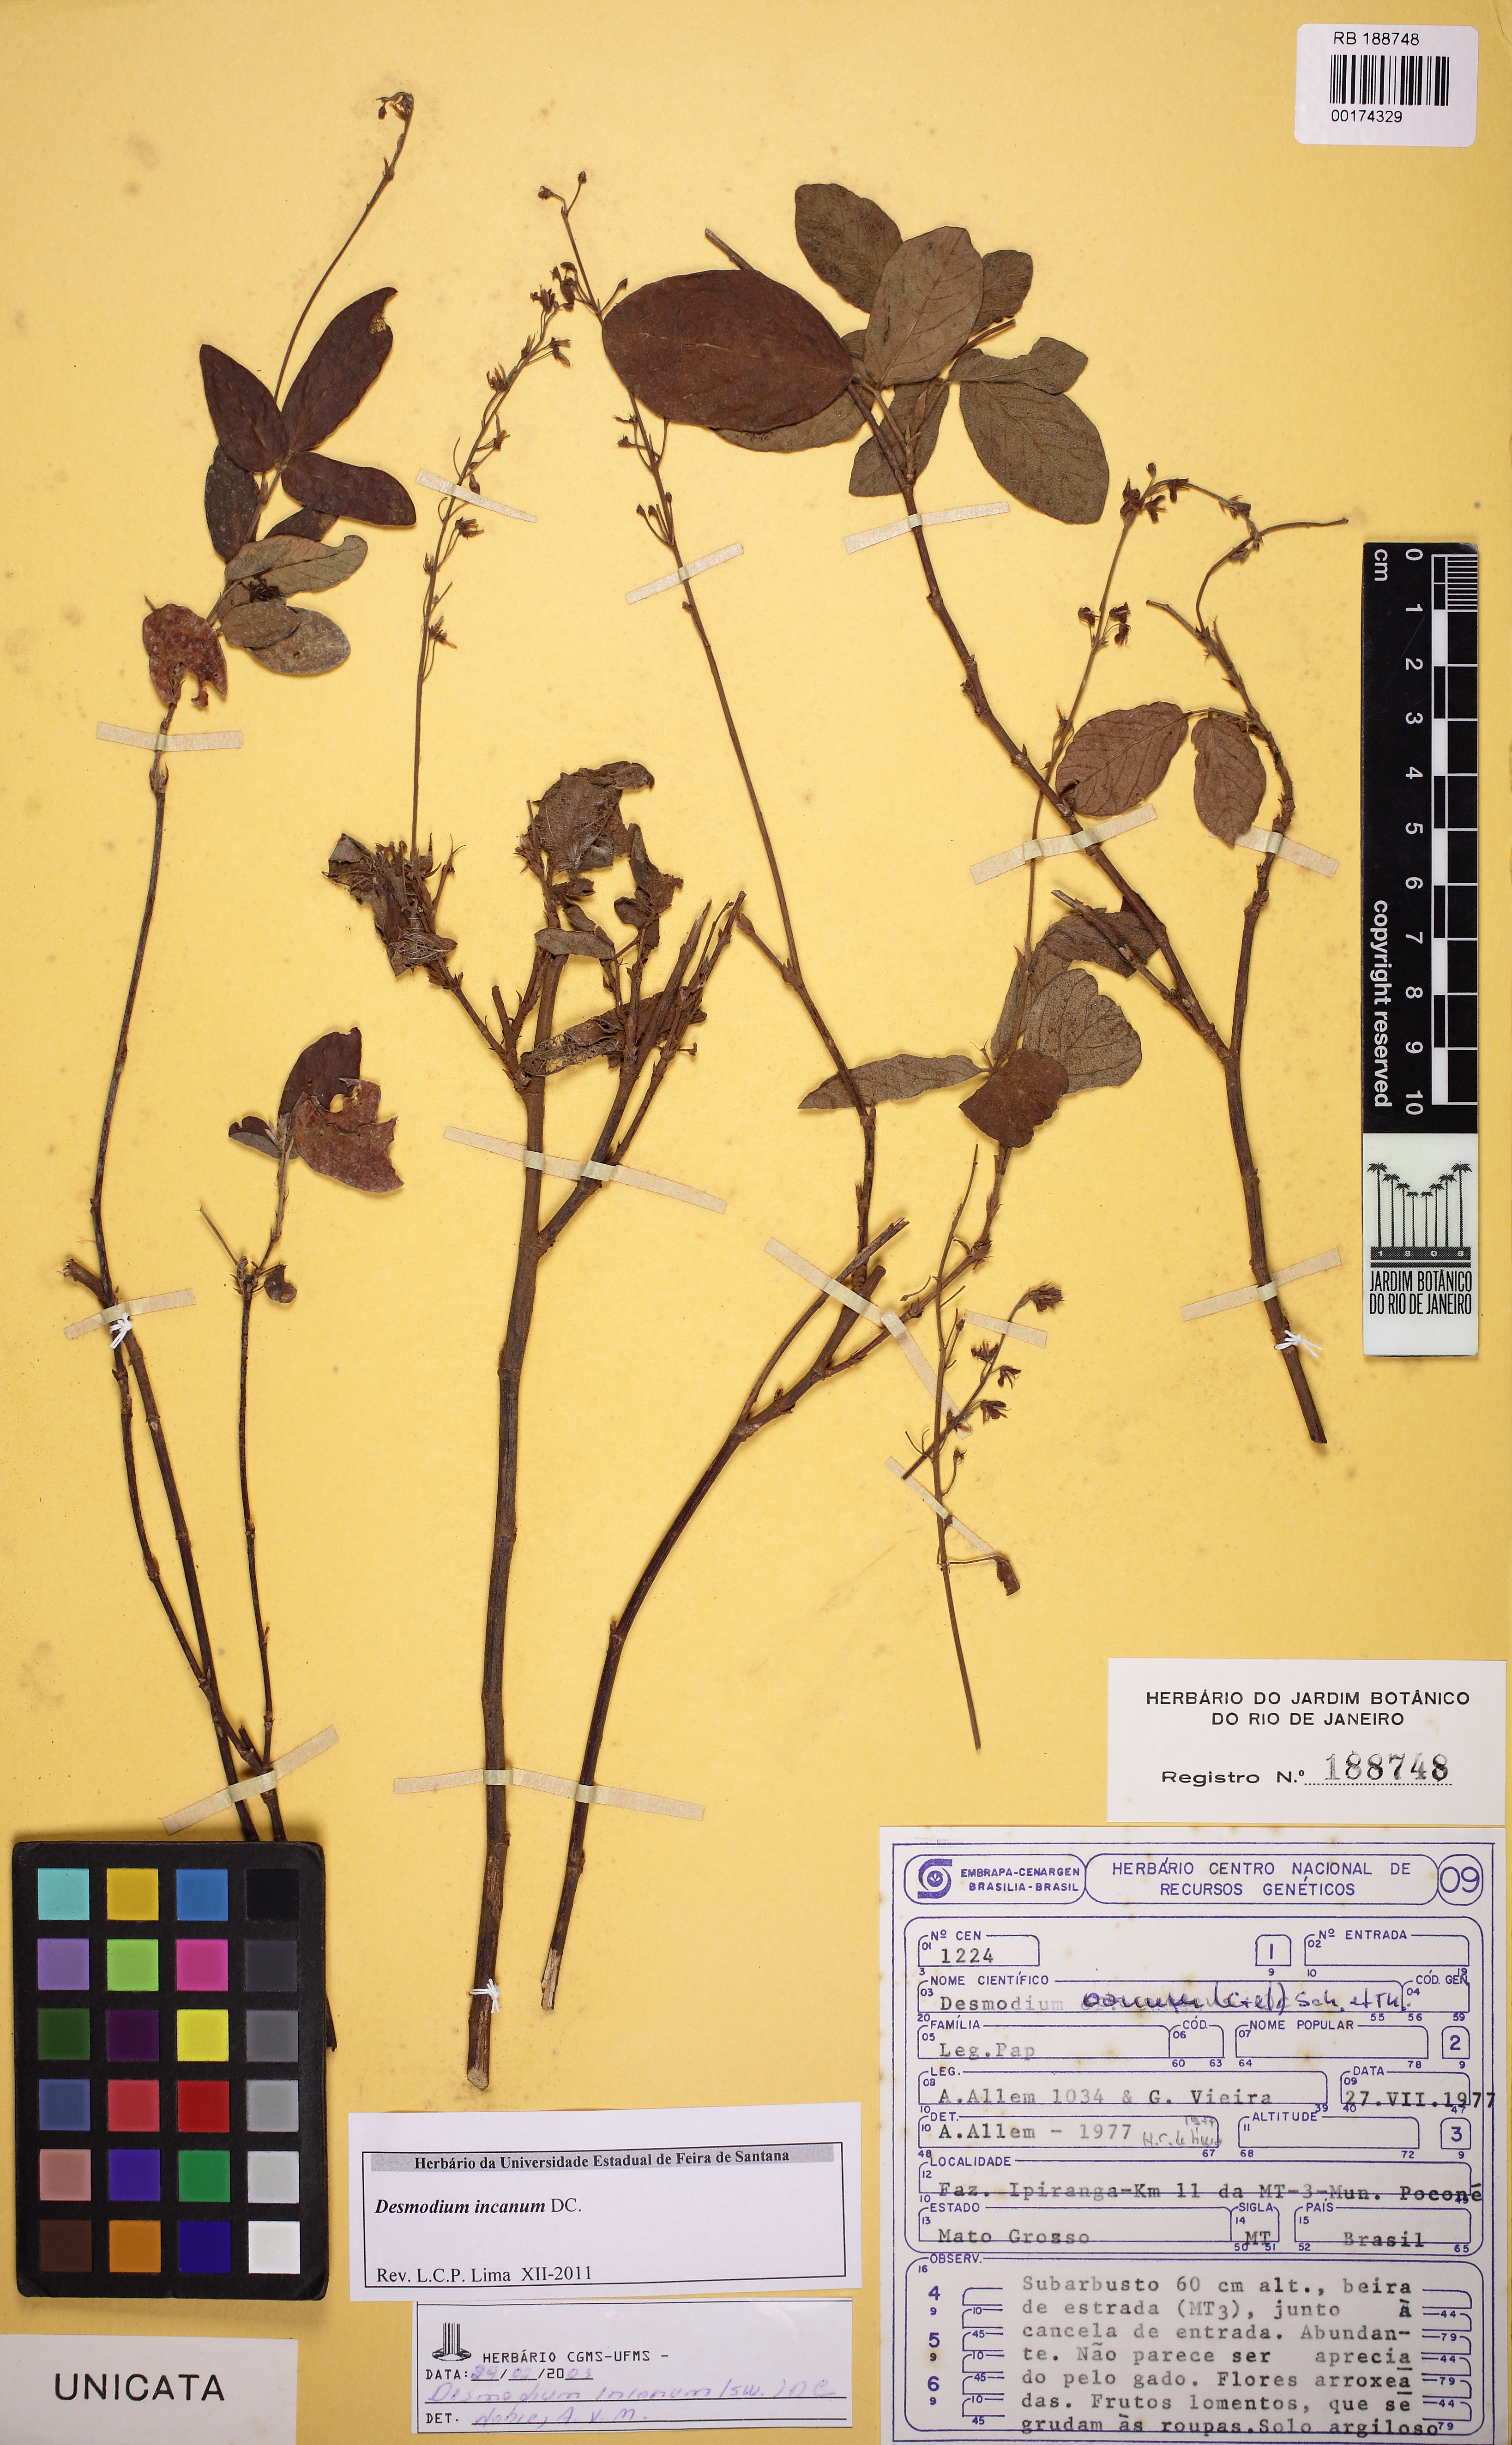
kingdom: Plantae
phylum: Tracheophyta
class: Magnoliopsida
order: Fabales
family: Fabaceae
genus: Desmodium
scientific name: Desmodium incanum
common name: Tickclover
